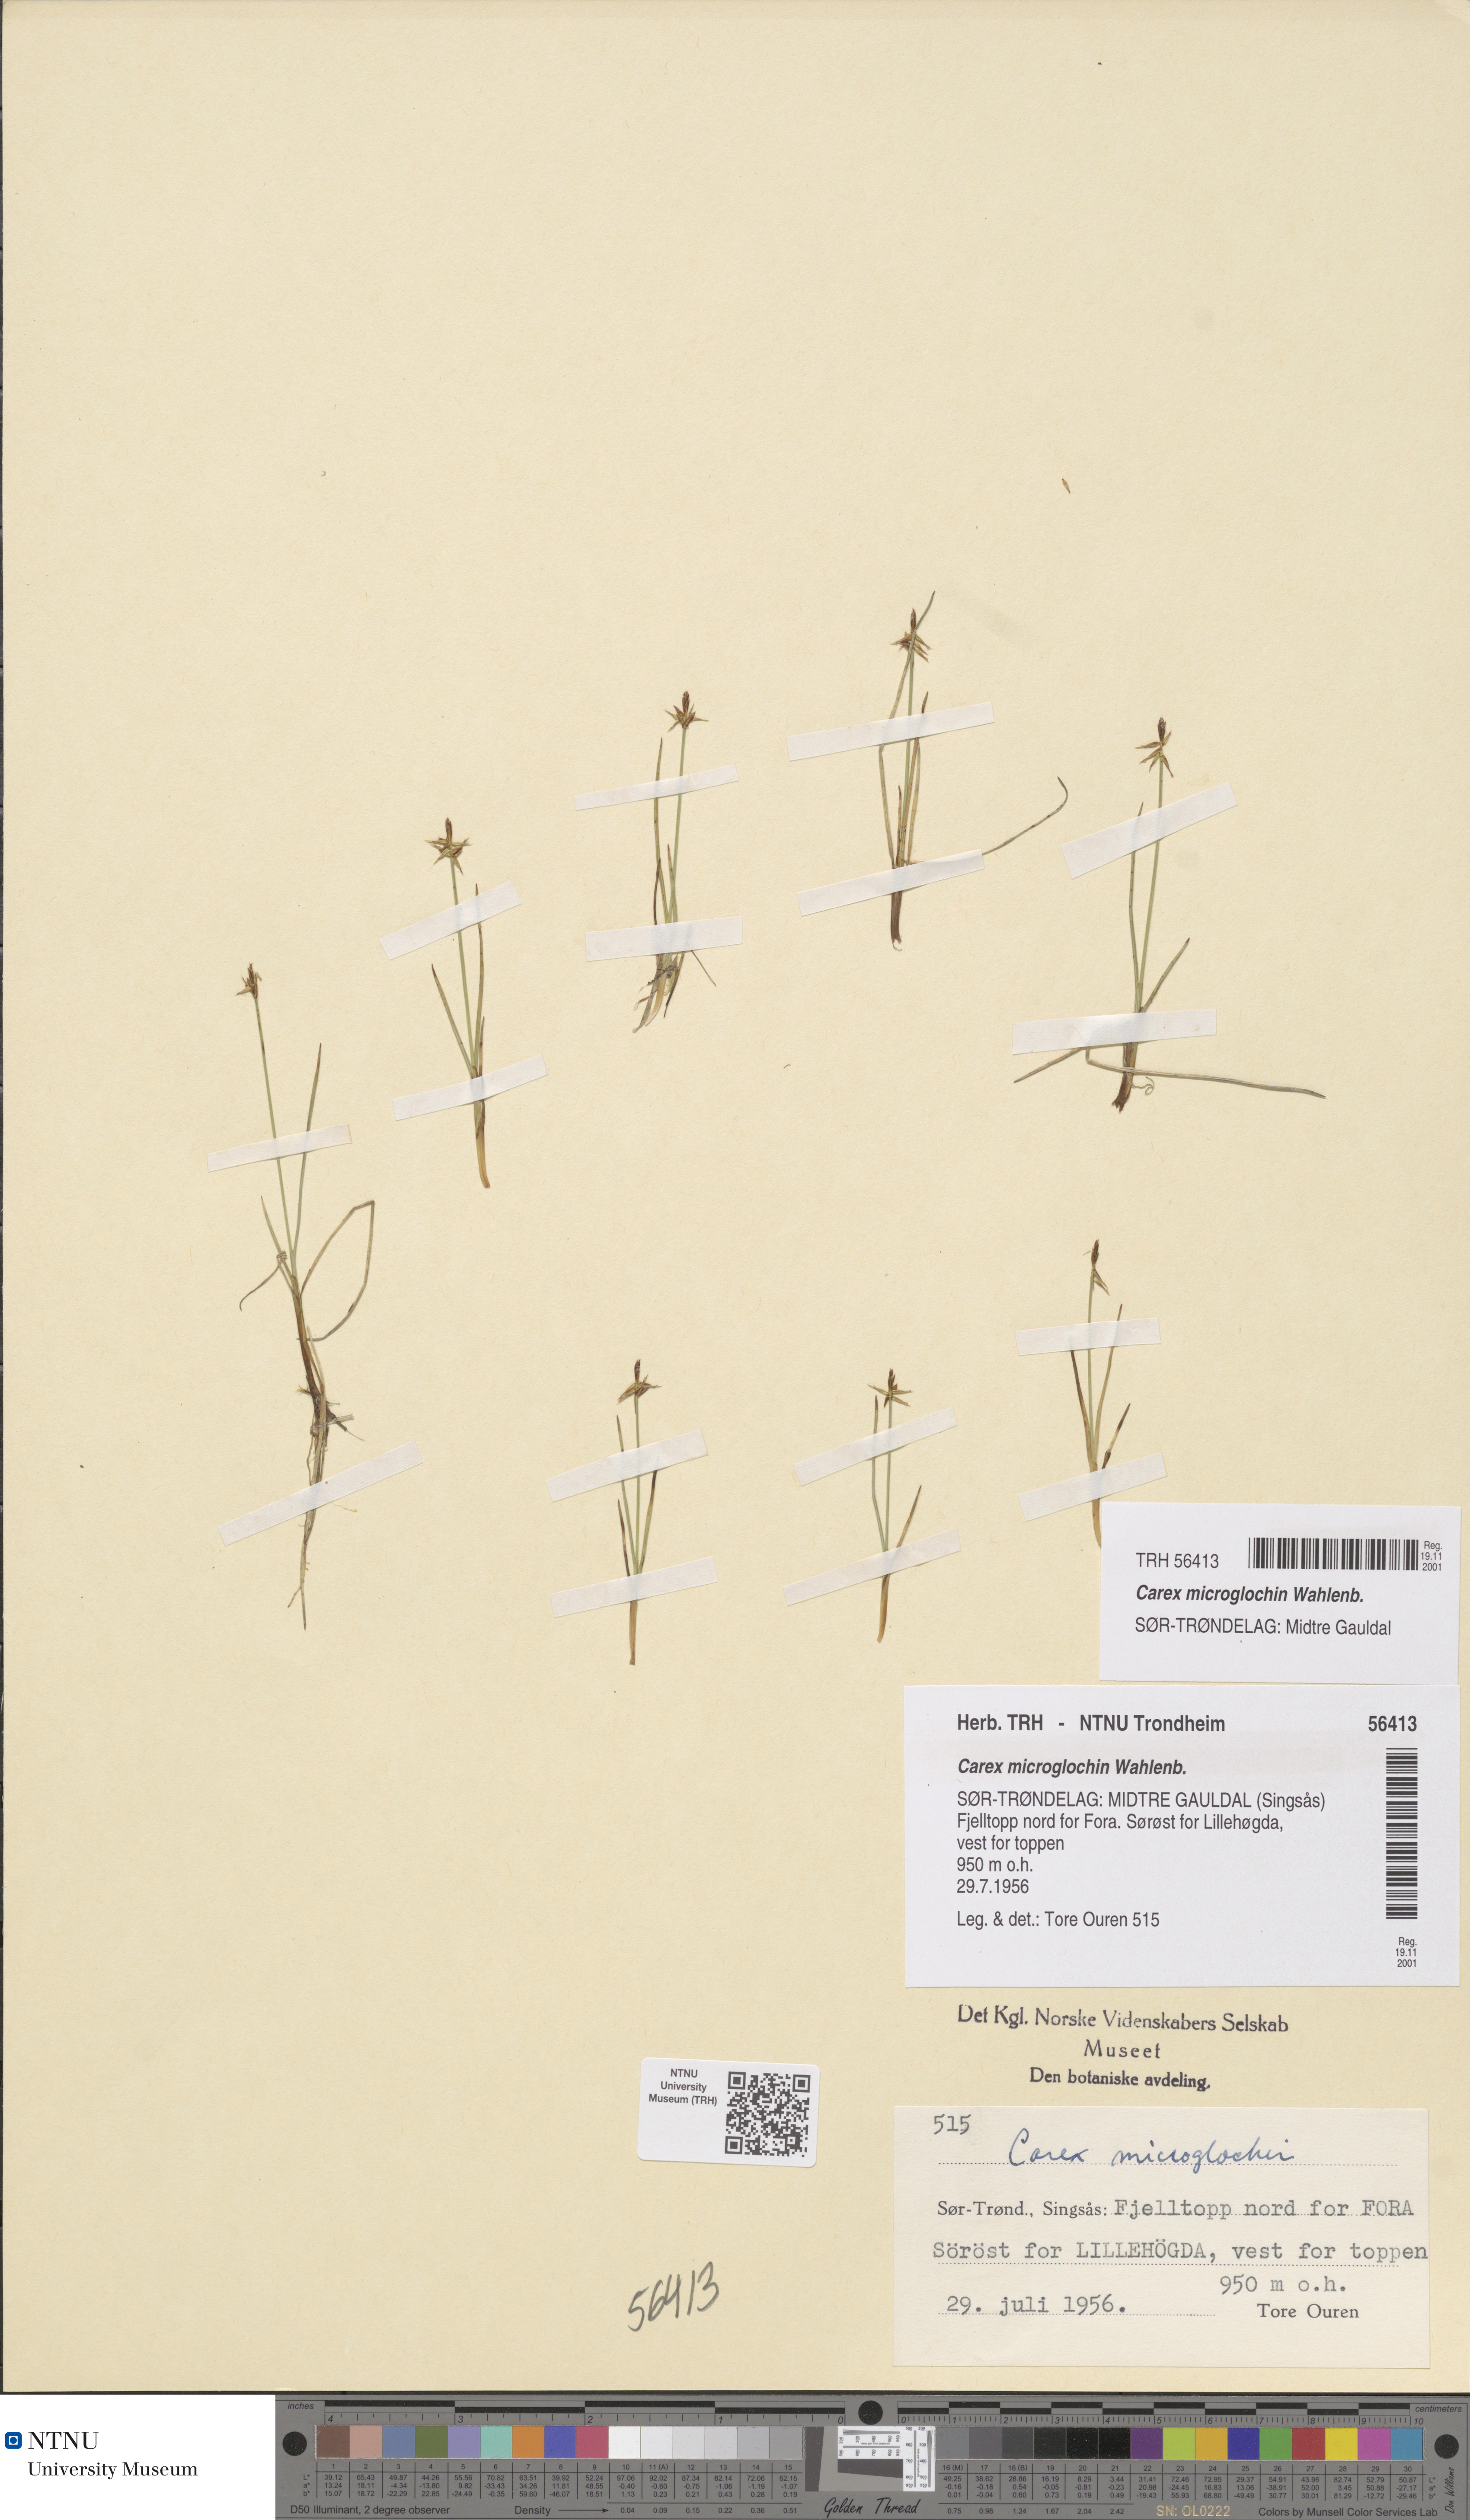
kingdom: Plantae
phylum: Tracheophyta
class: Liliopsida
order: Poales
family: Cyperaceae
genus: Carex
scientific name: Carex microglochin
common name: Bristle sedge
